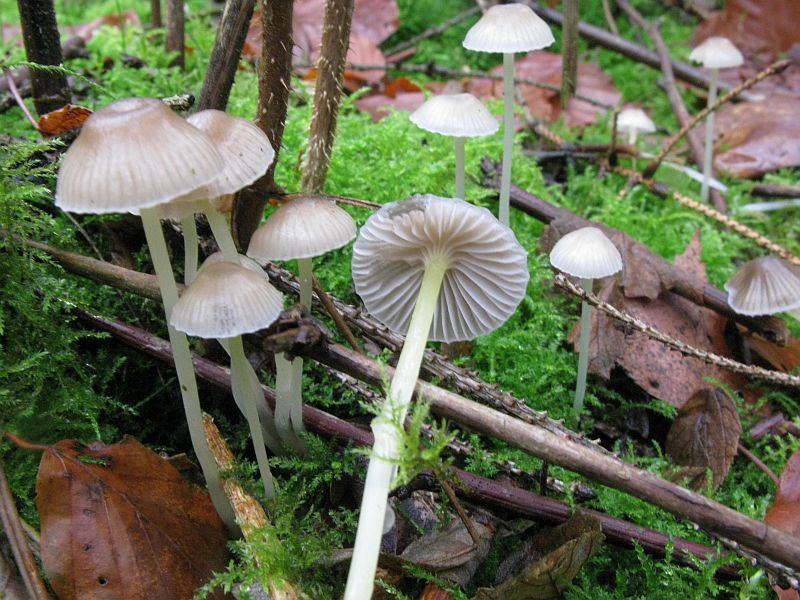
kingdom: Fungi
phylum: Basidiomycota
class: Agaricomycetes
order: Agaricales
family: Mycenaceae
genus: Mycena
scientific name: Mycena epipterygia
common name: gulstokket huesvamp
